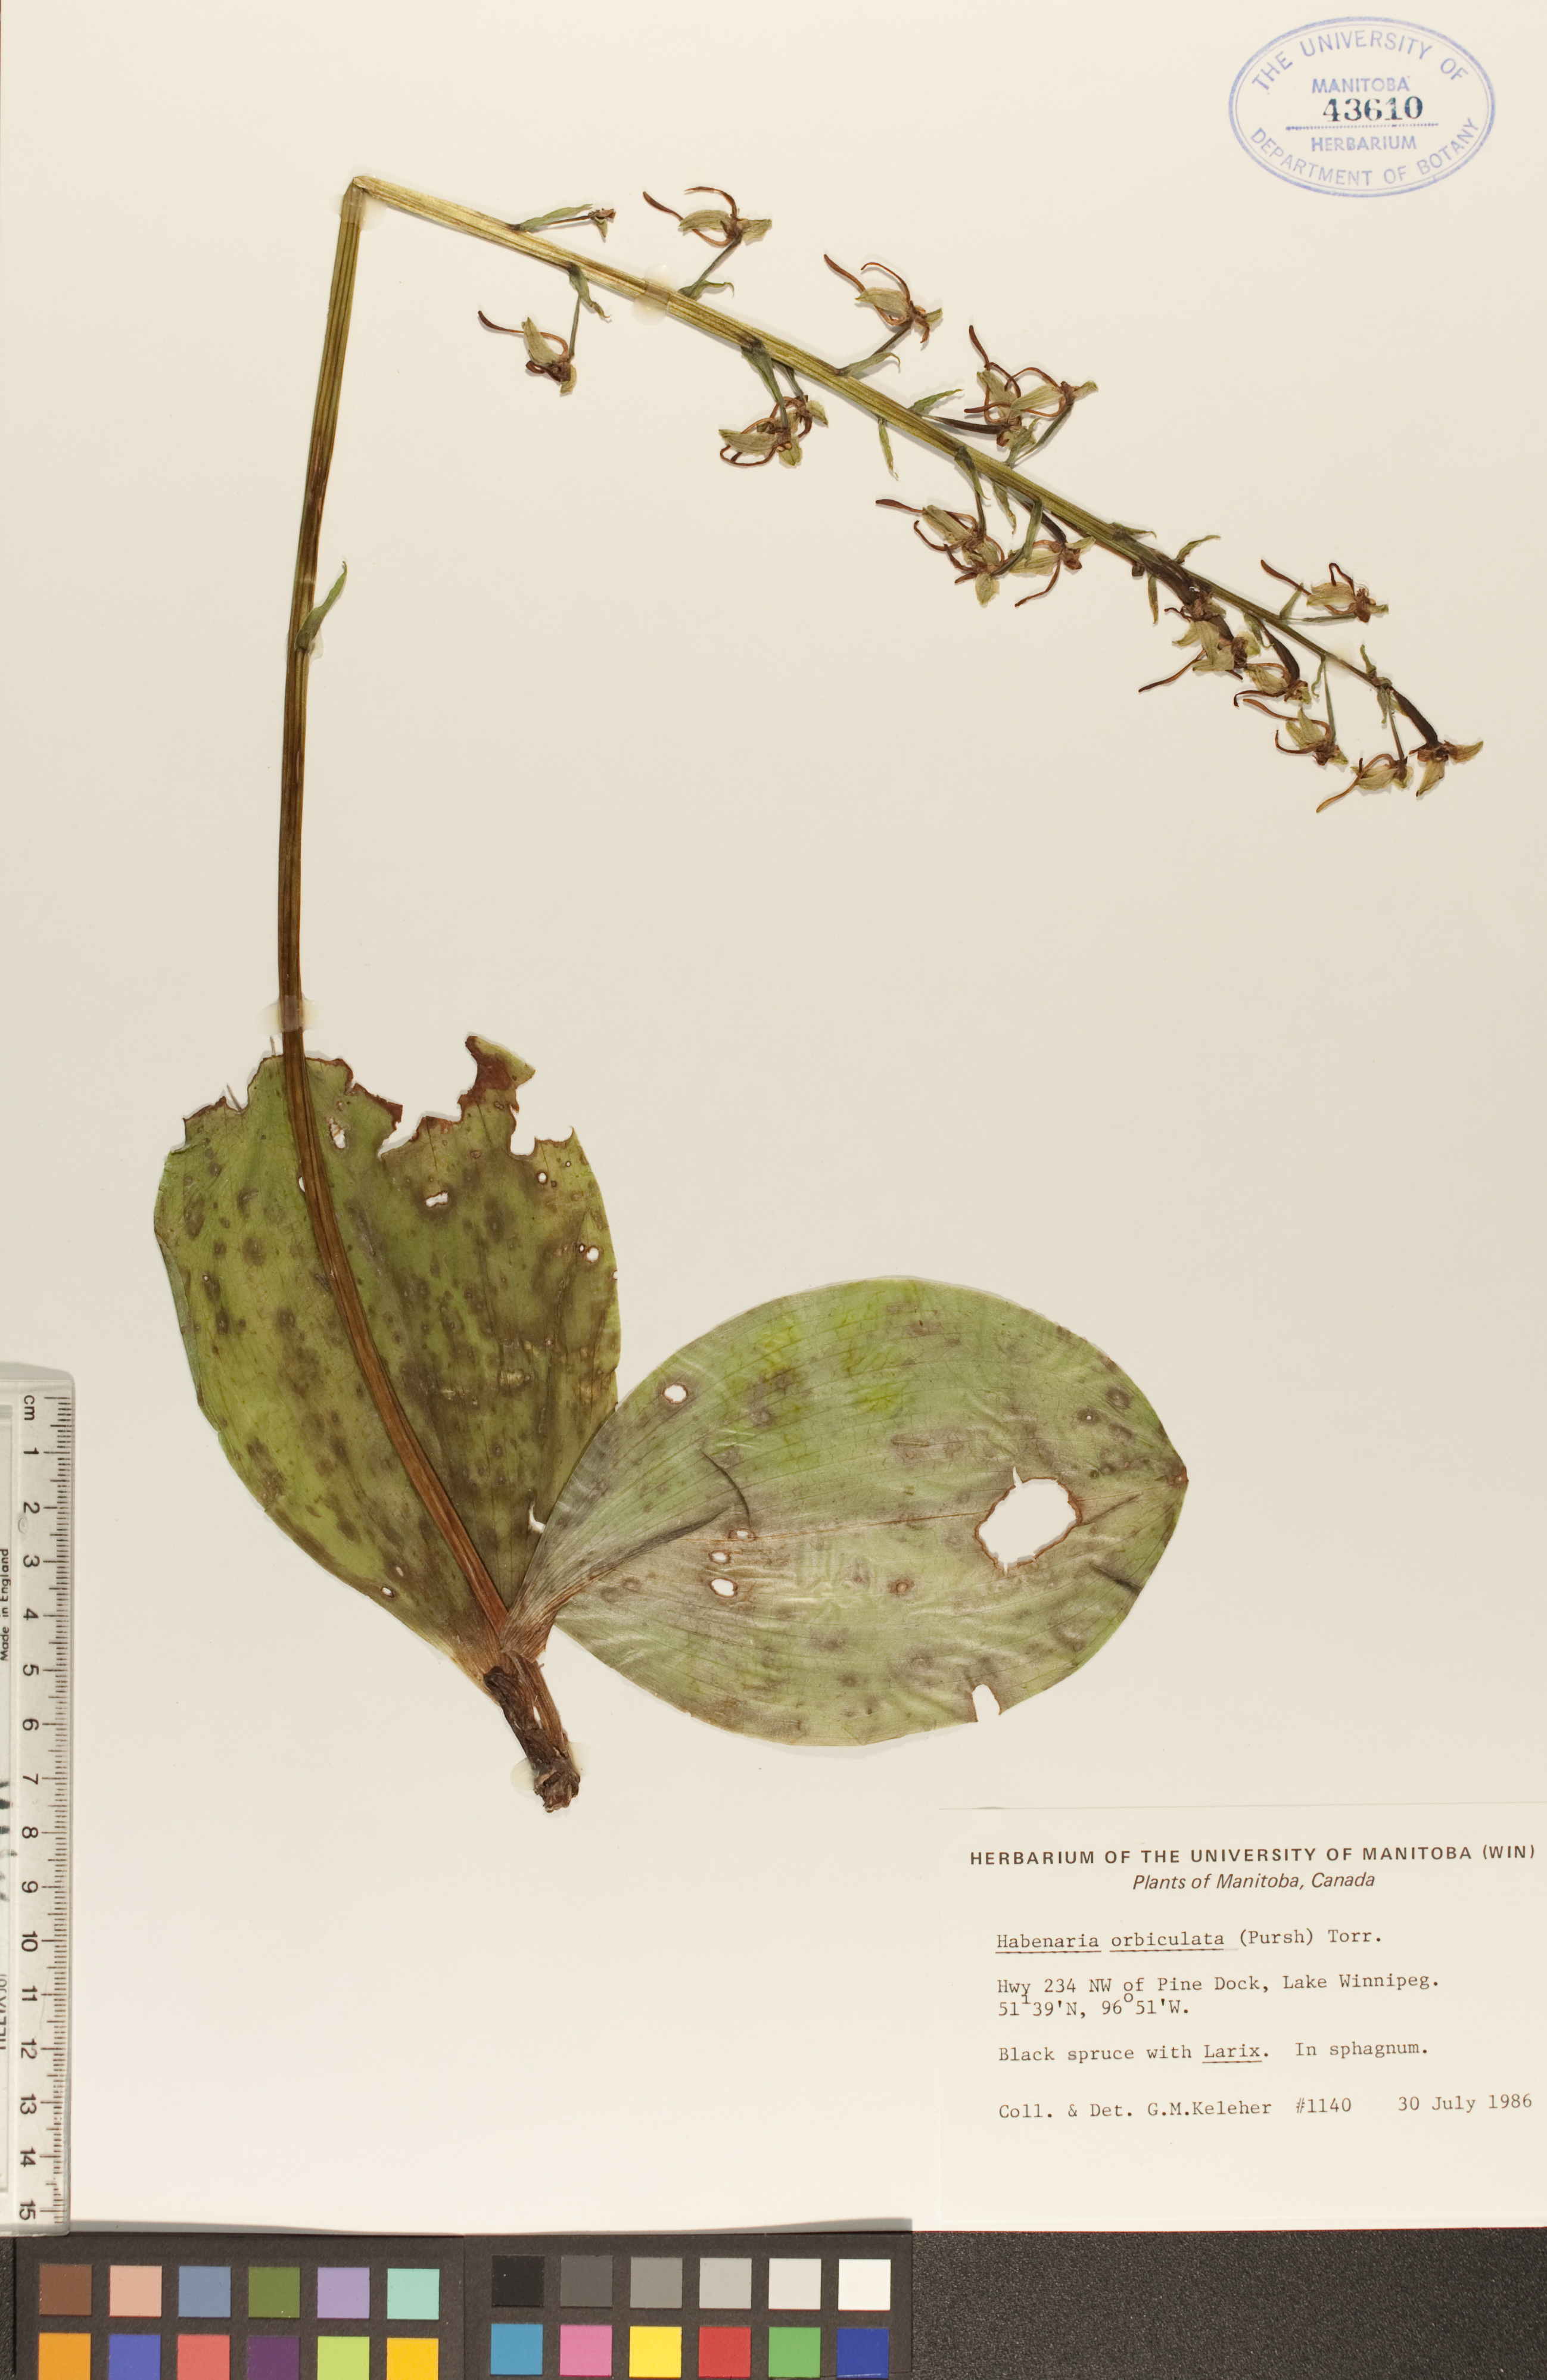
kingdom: Plantae
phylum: Tracheophyta
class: Liliopsida
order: Asparagales
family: Orchidaceae
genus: Platanthera
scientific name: Platanthera orbiculata
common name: Large round-leaved orchid
